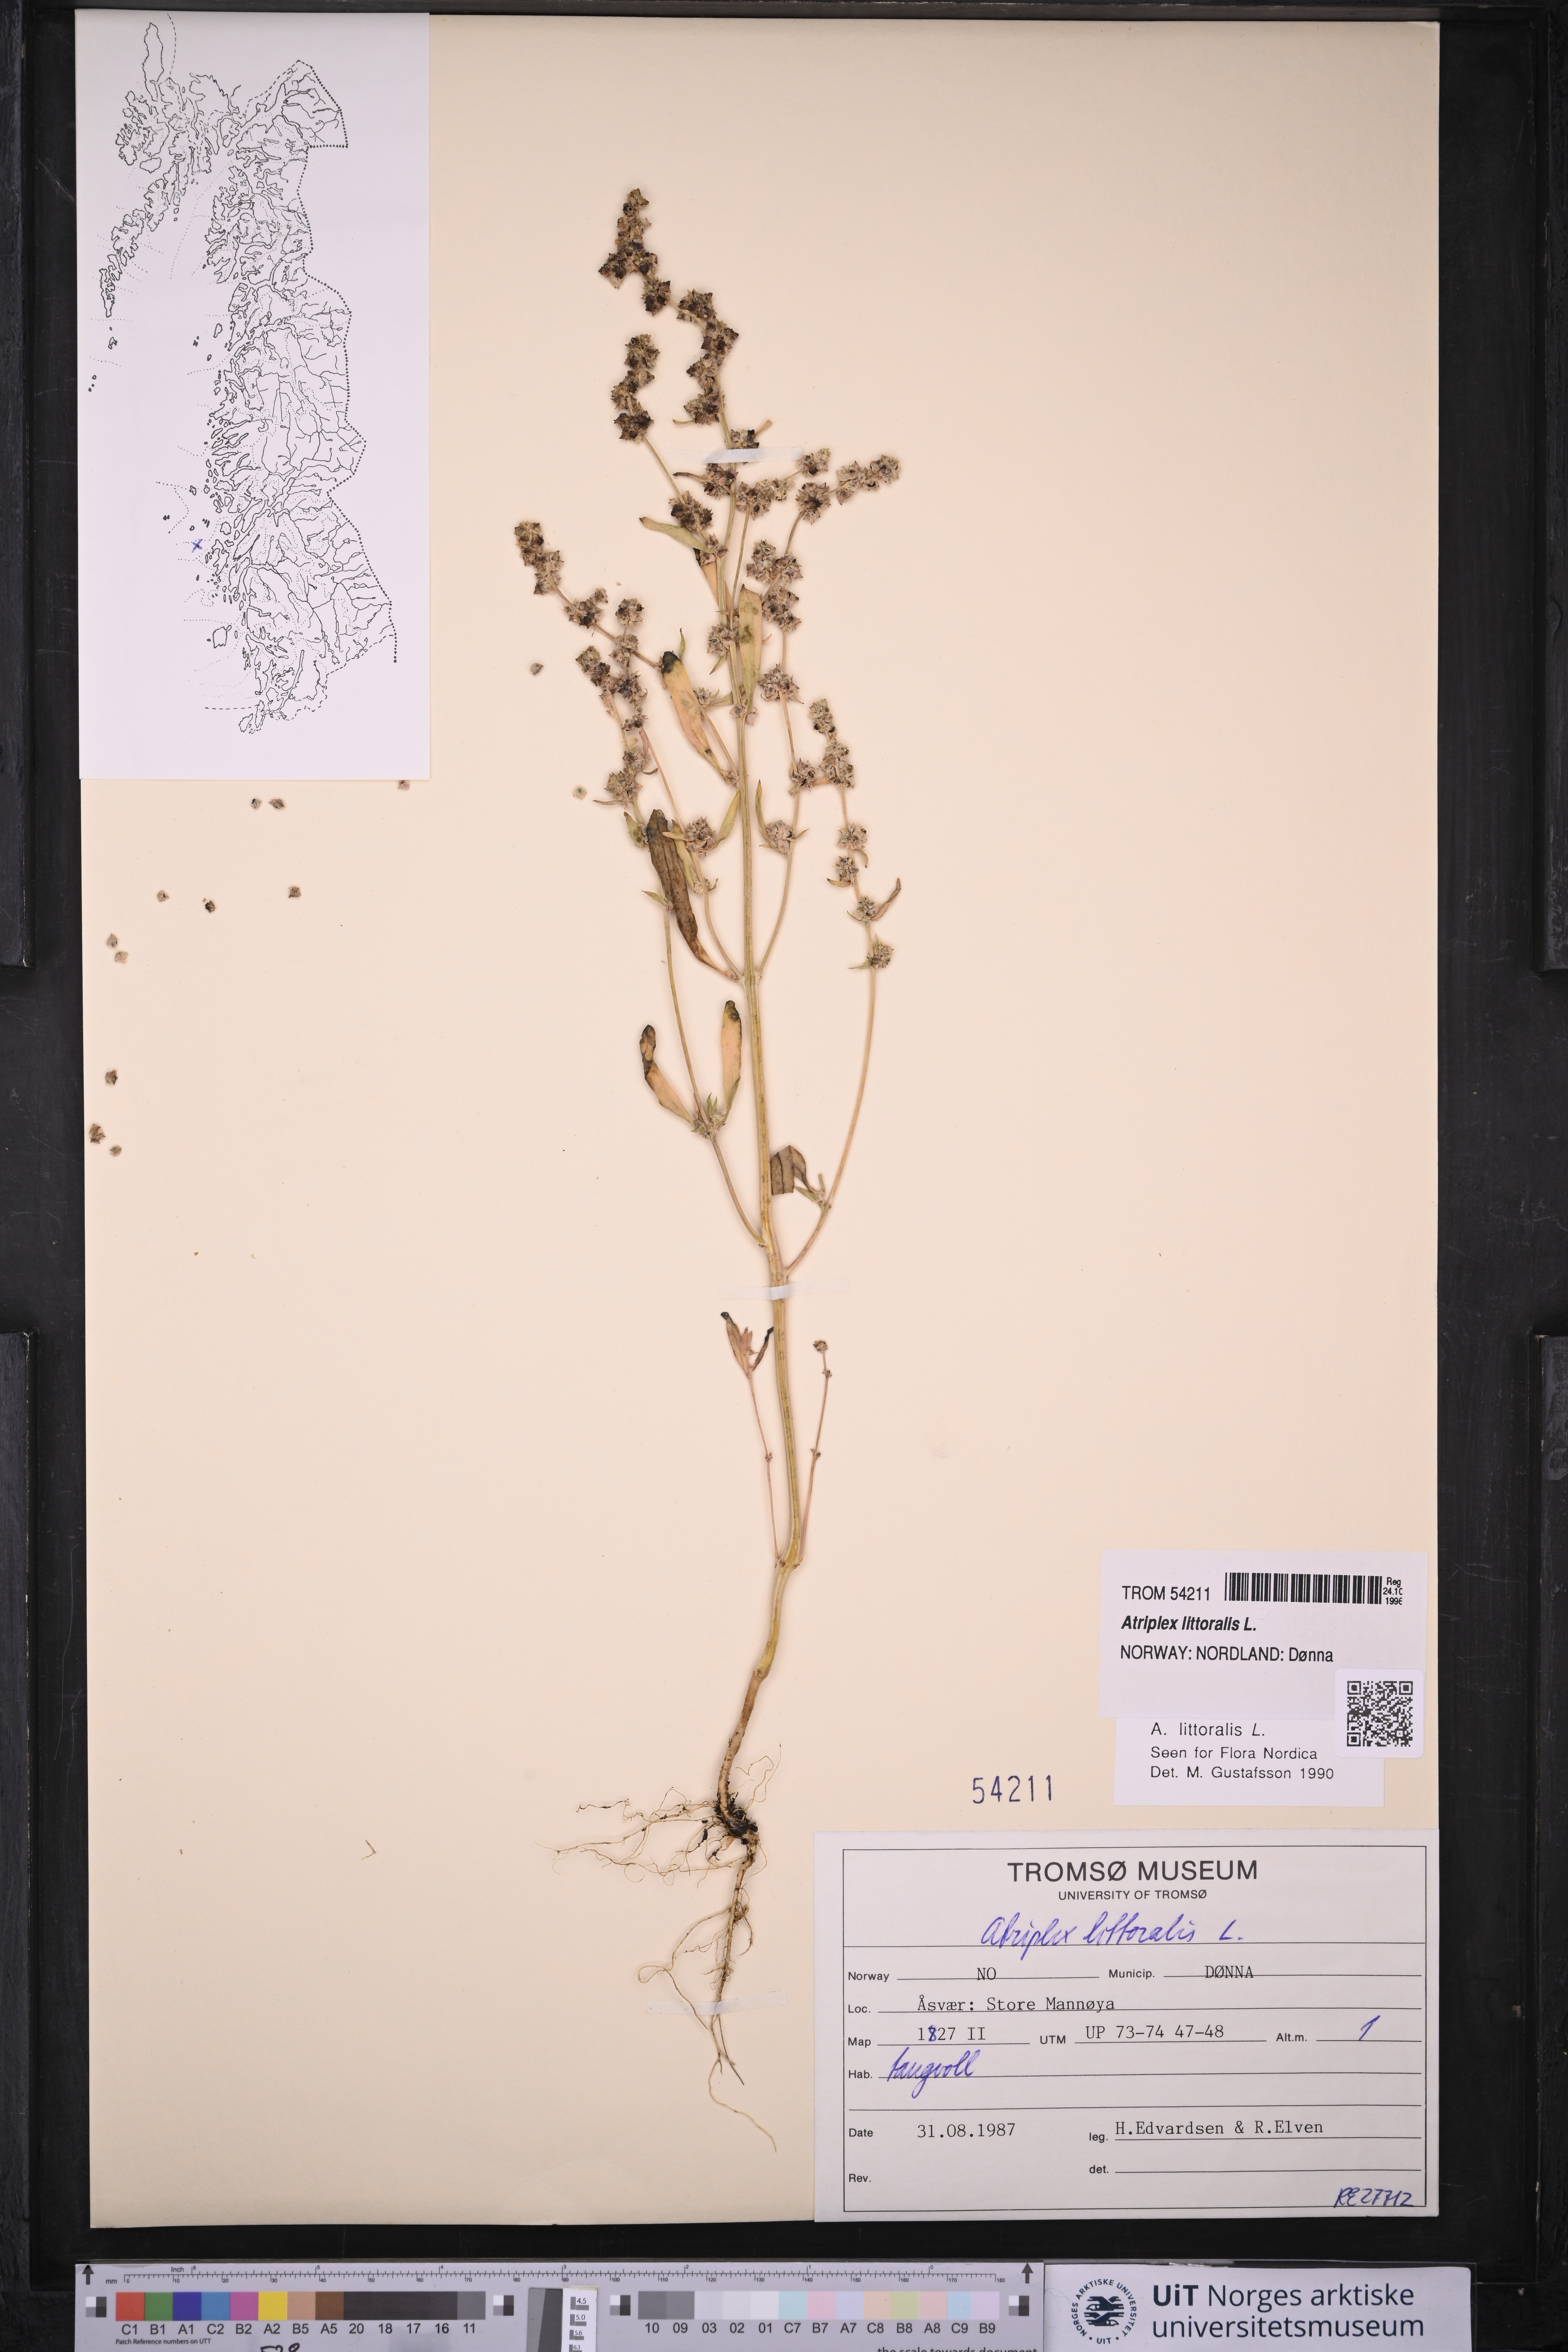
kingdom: Plantae
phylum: Tracheophyta
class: Magnoliopsida
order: Caryophyllales
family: Amaranthaceae
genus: Atriplex
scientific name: Atriplex littoralis
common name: Grass-leaved orache
